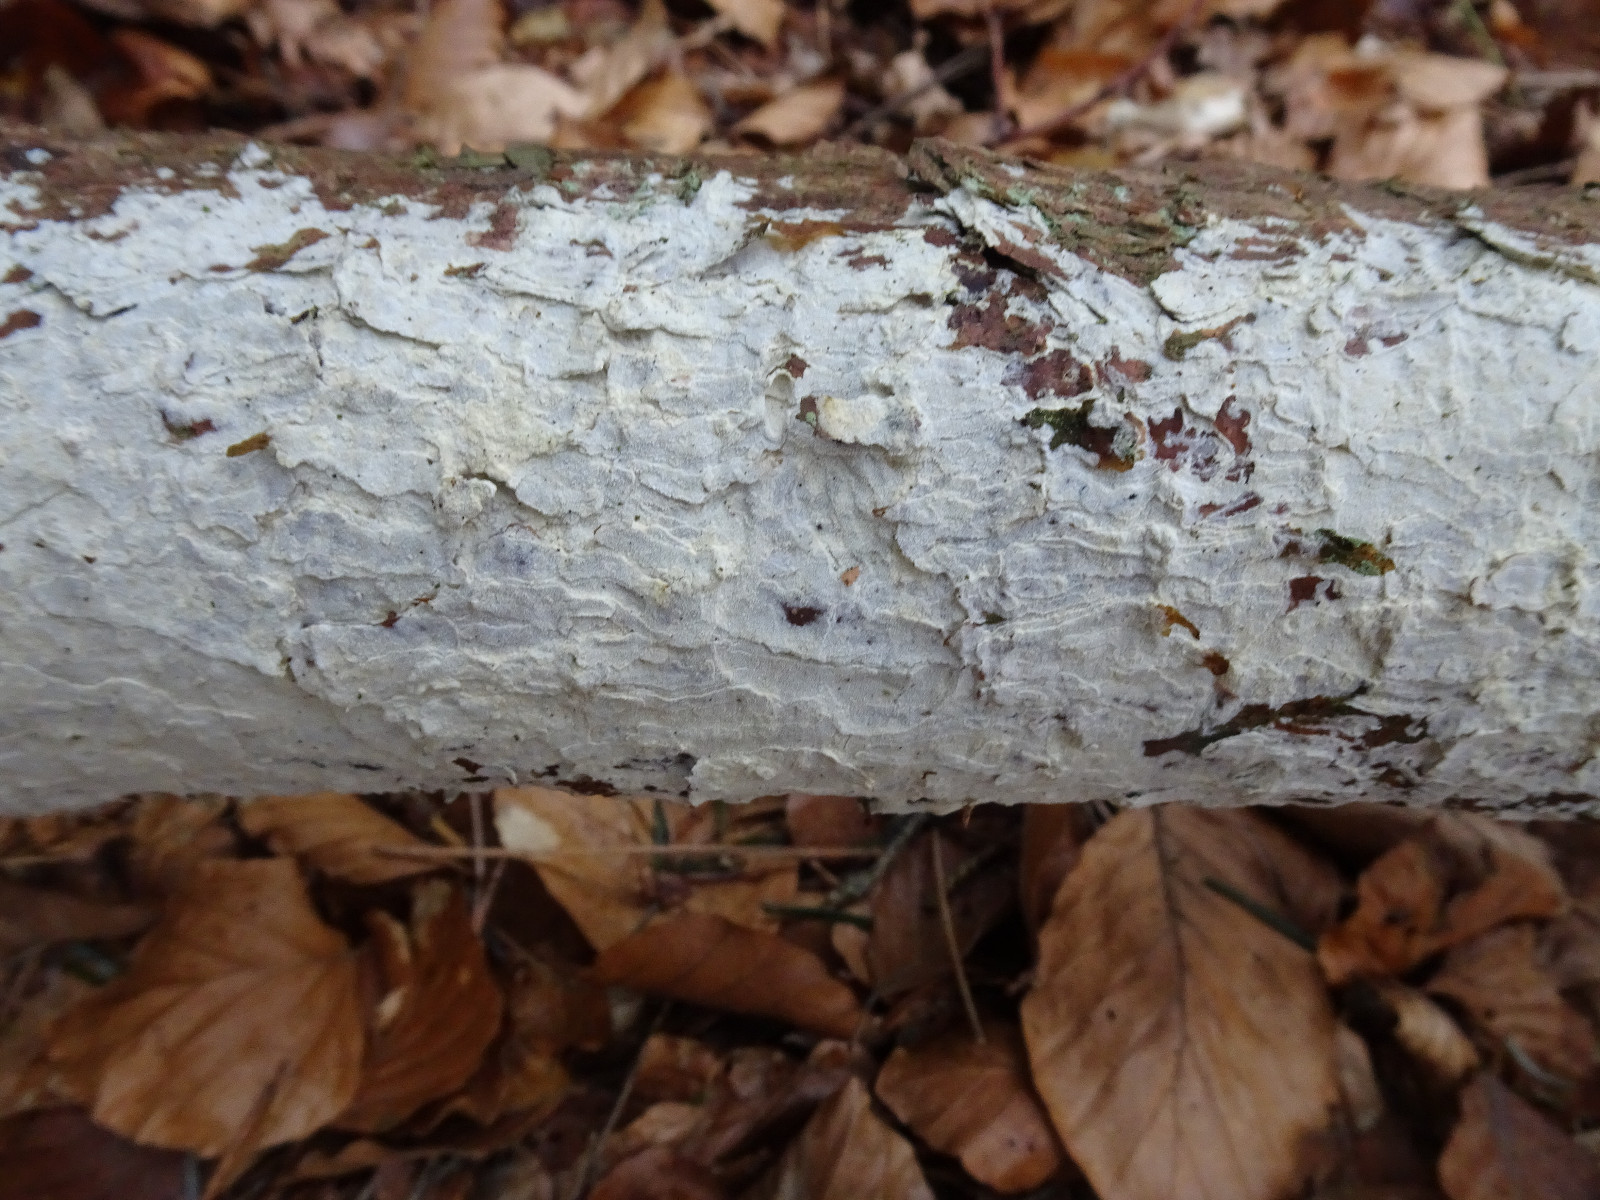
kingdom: Fungi
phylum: Basidiomycota
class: Agaricomycetes
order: Corticiales
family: Corticiaceae
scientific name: Corticiaceae
